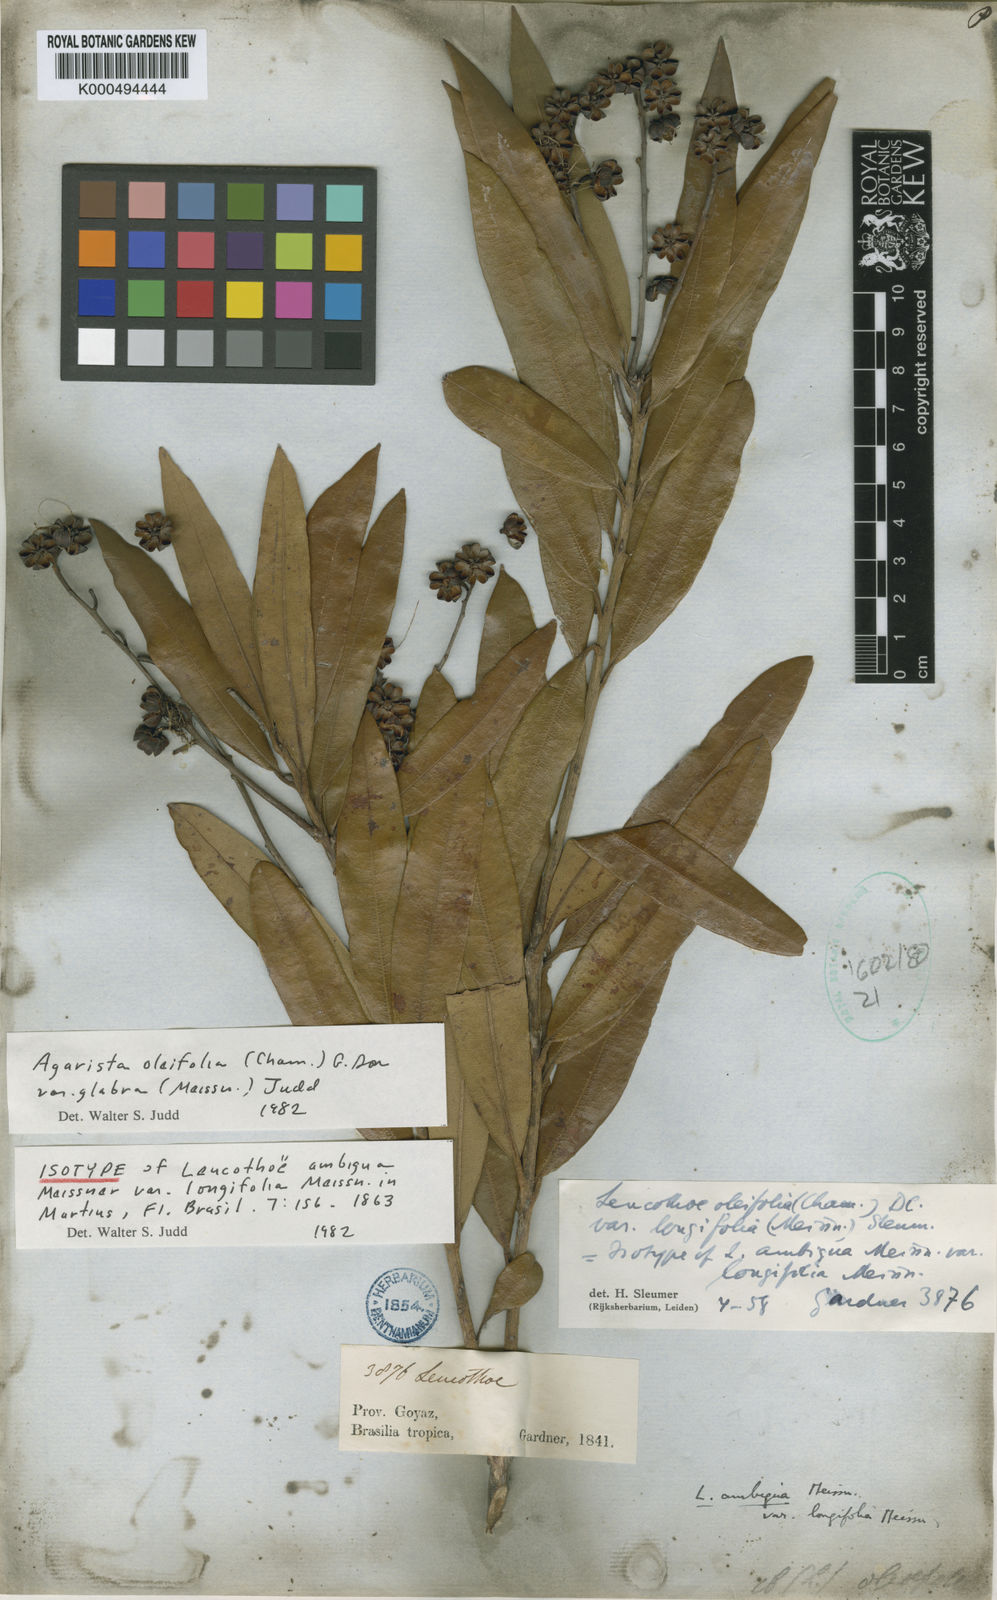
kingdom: Plantae
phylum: Tracheophyta
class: Magnoliopsida
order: Ericales
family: Ericaceae
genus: Agarista
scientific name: Agarista oleifolia
